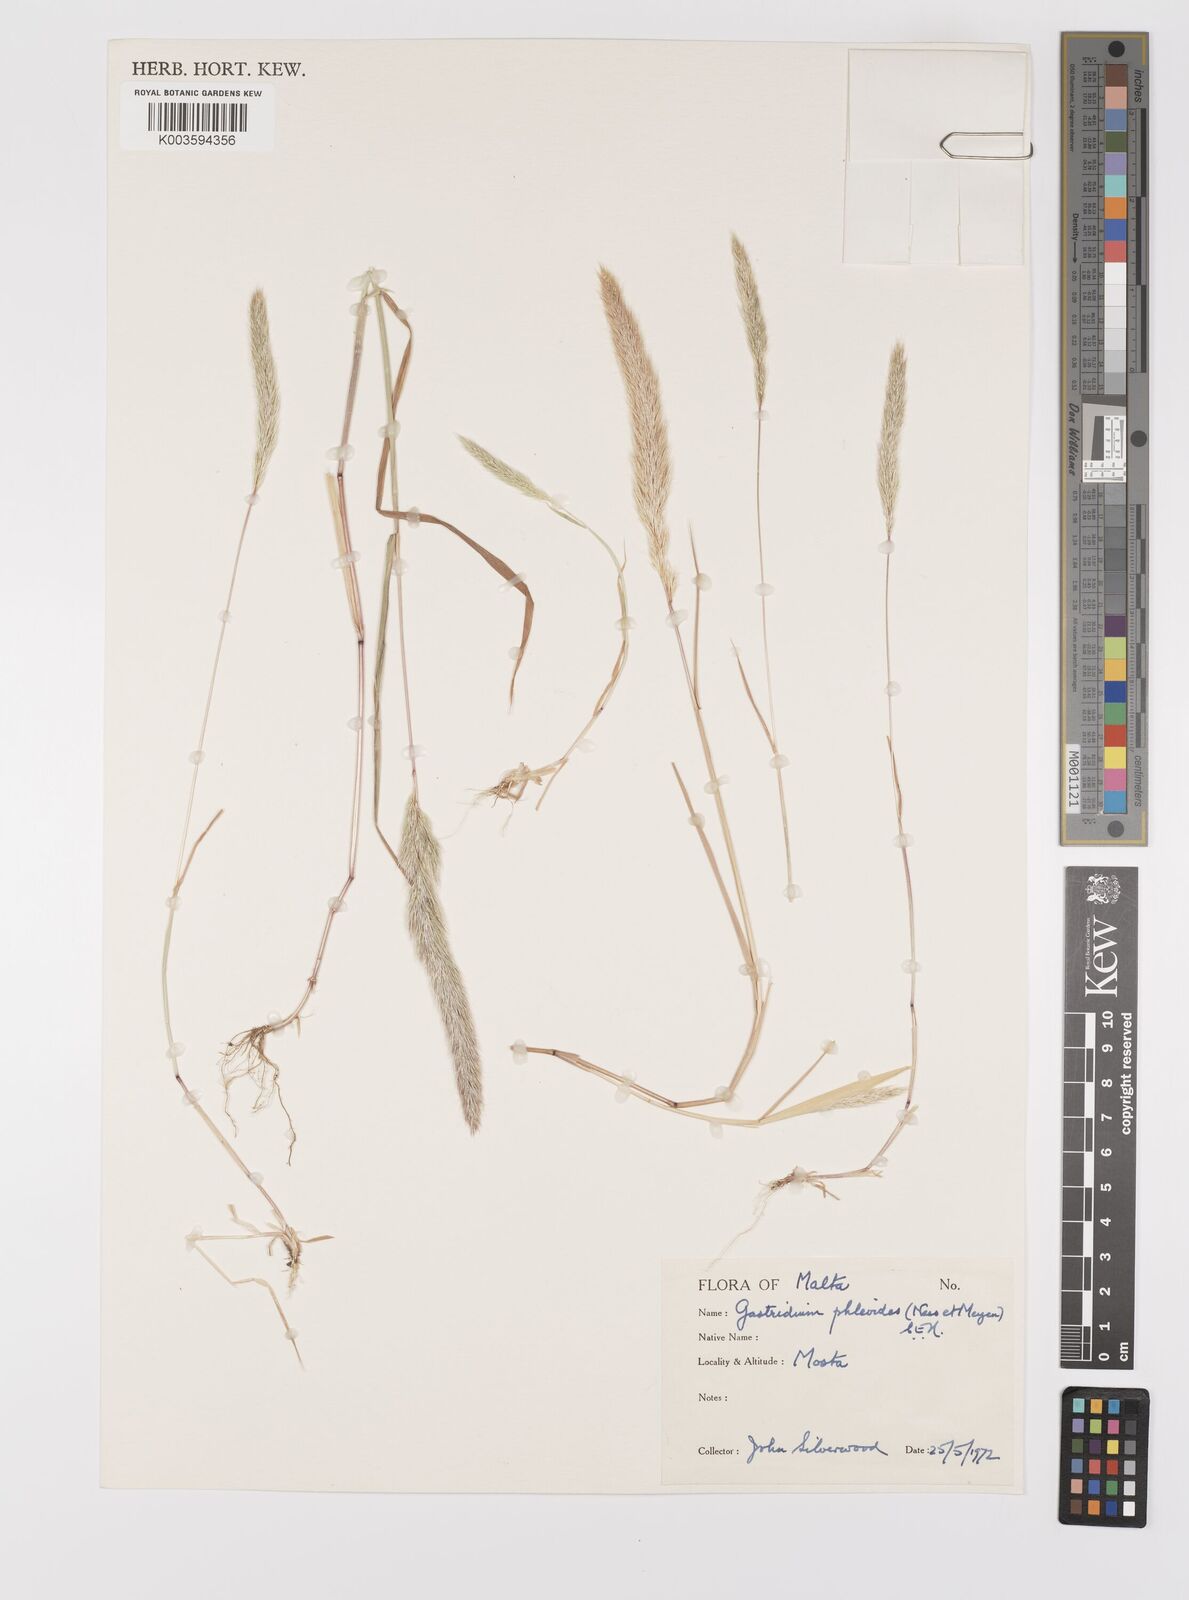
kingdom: Plantae
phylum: Tracheophyta
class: Liliopsida
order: Poales
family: Poaceae
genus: Gastridium
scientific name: Gastridium phleoides
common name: Nit grass
